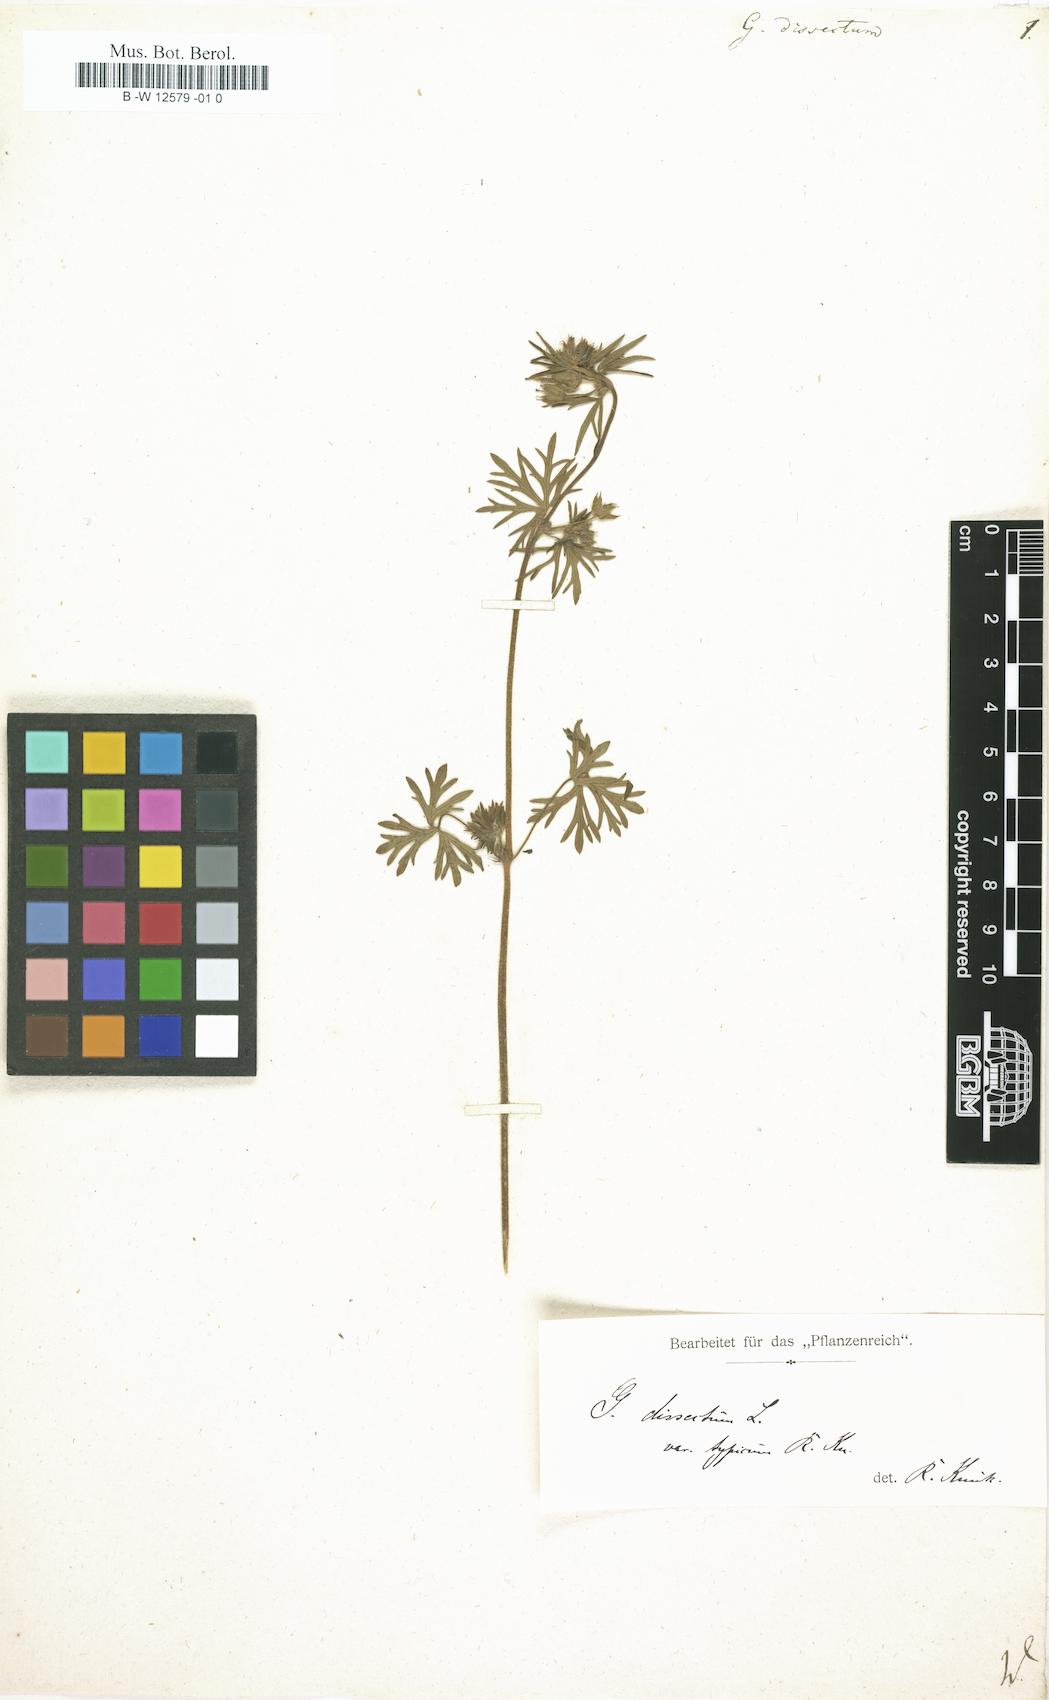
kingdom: Plantae
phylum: Tracheophyta
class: Magnoliopsida
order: Geraniales
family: Geraniaceae
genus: Geranium
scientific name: Geranium dissectum
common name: Cut-leaved crane's-bill
